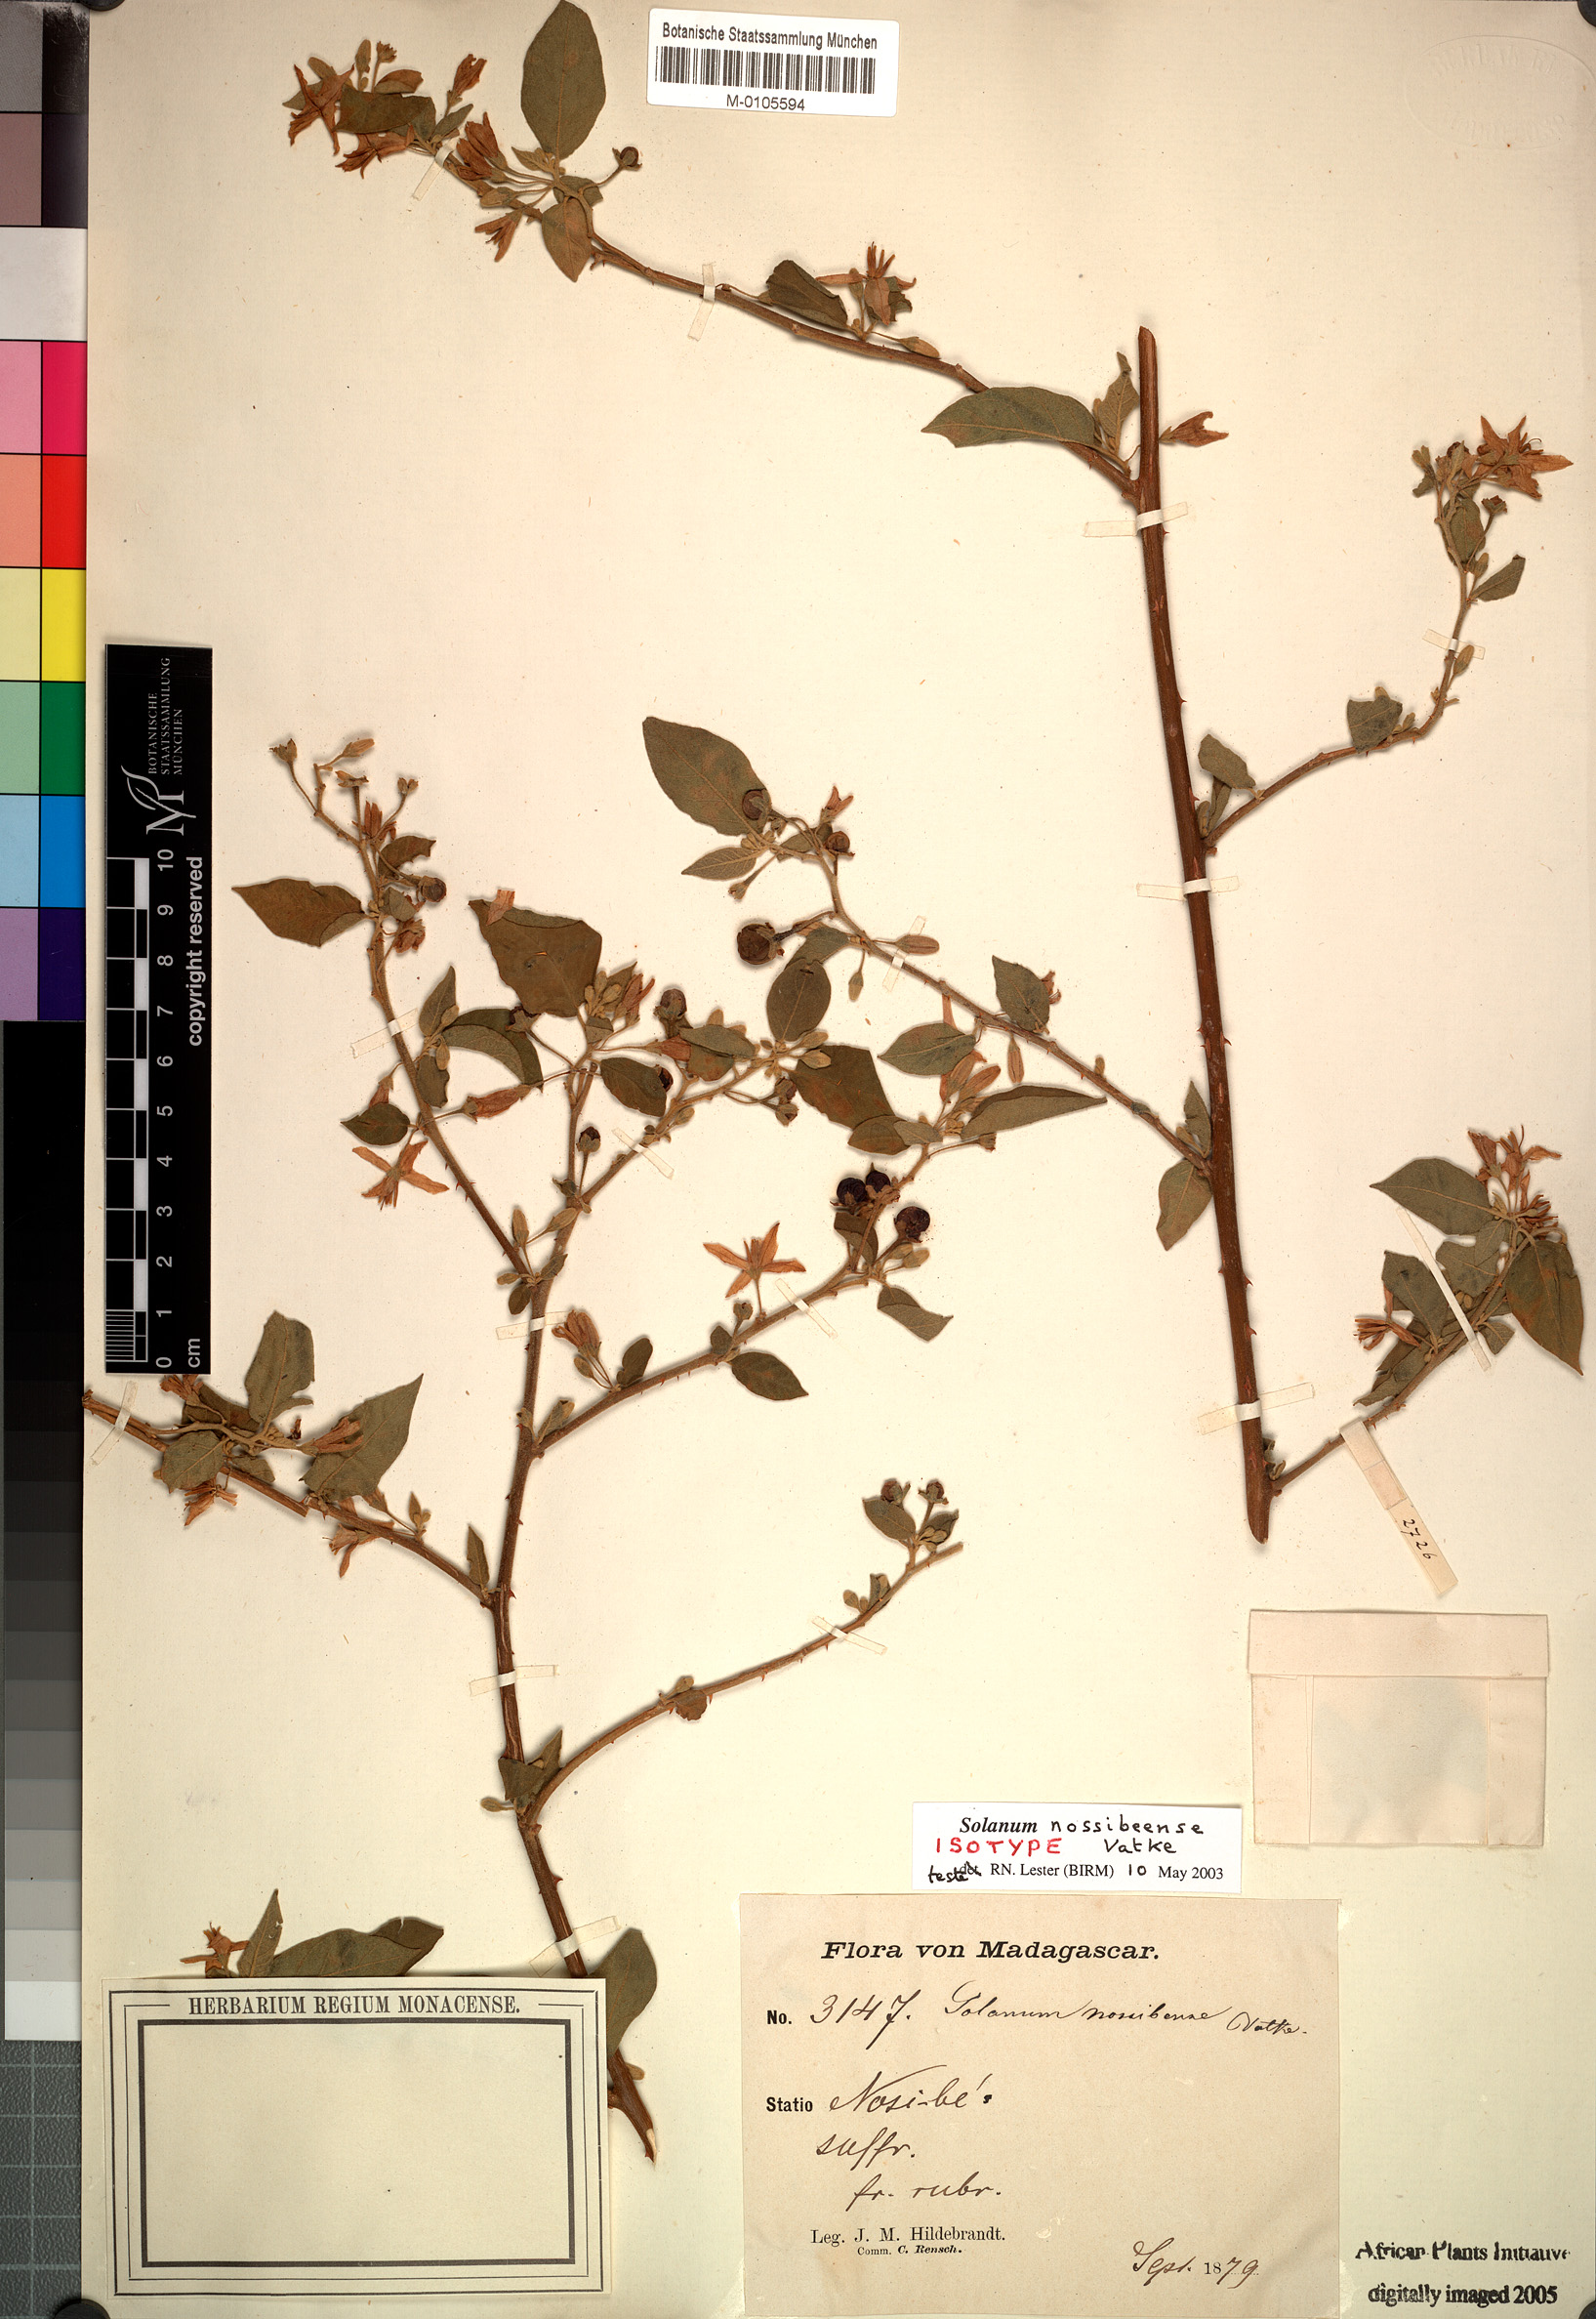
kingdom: Plantae
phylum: Tracheophyta
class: Magnoliopsida
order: Solanales
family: Solanaceae
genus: Solanum
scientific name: Solanum erythracanthum
